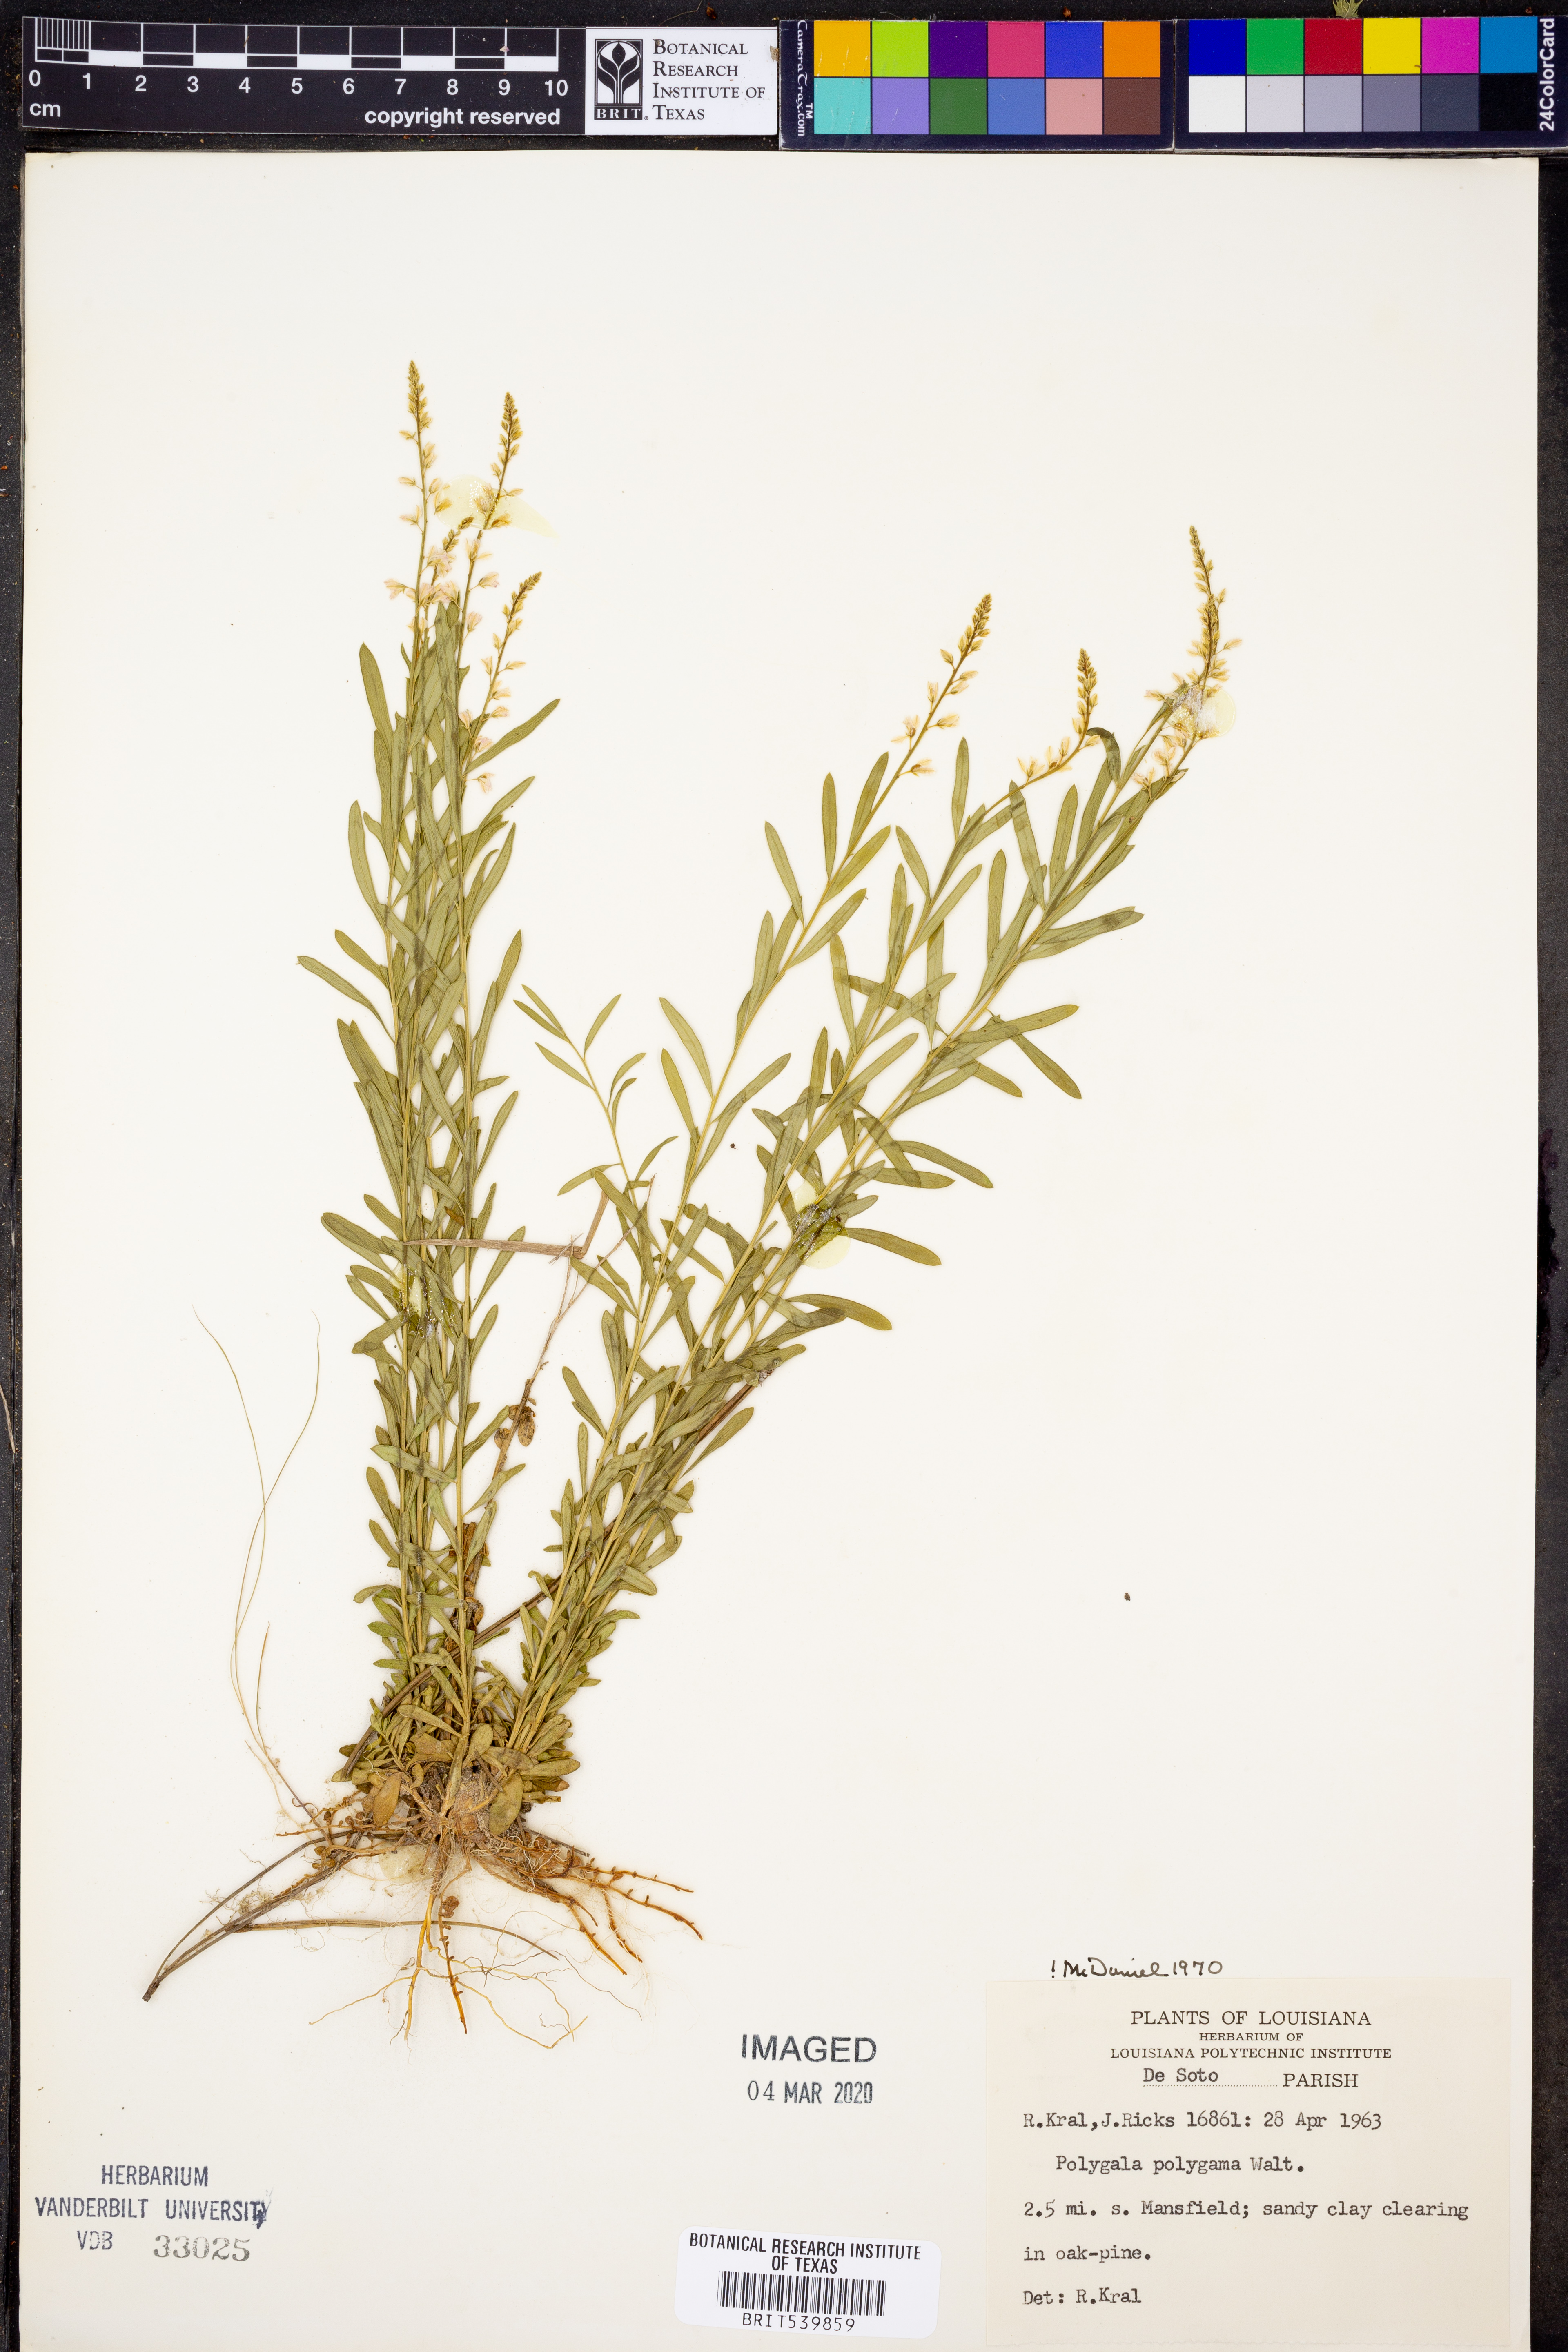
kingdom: Plantae
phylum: Tracheophyta
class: Magnoliopsida
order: Fabales
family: Polygalaceae
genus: Polygala
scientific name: Polygala polygama
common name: Bitter milkwort
